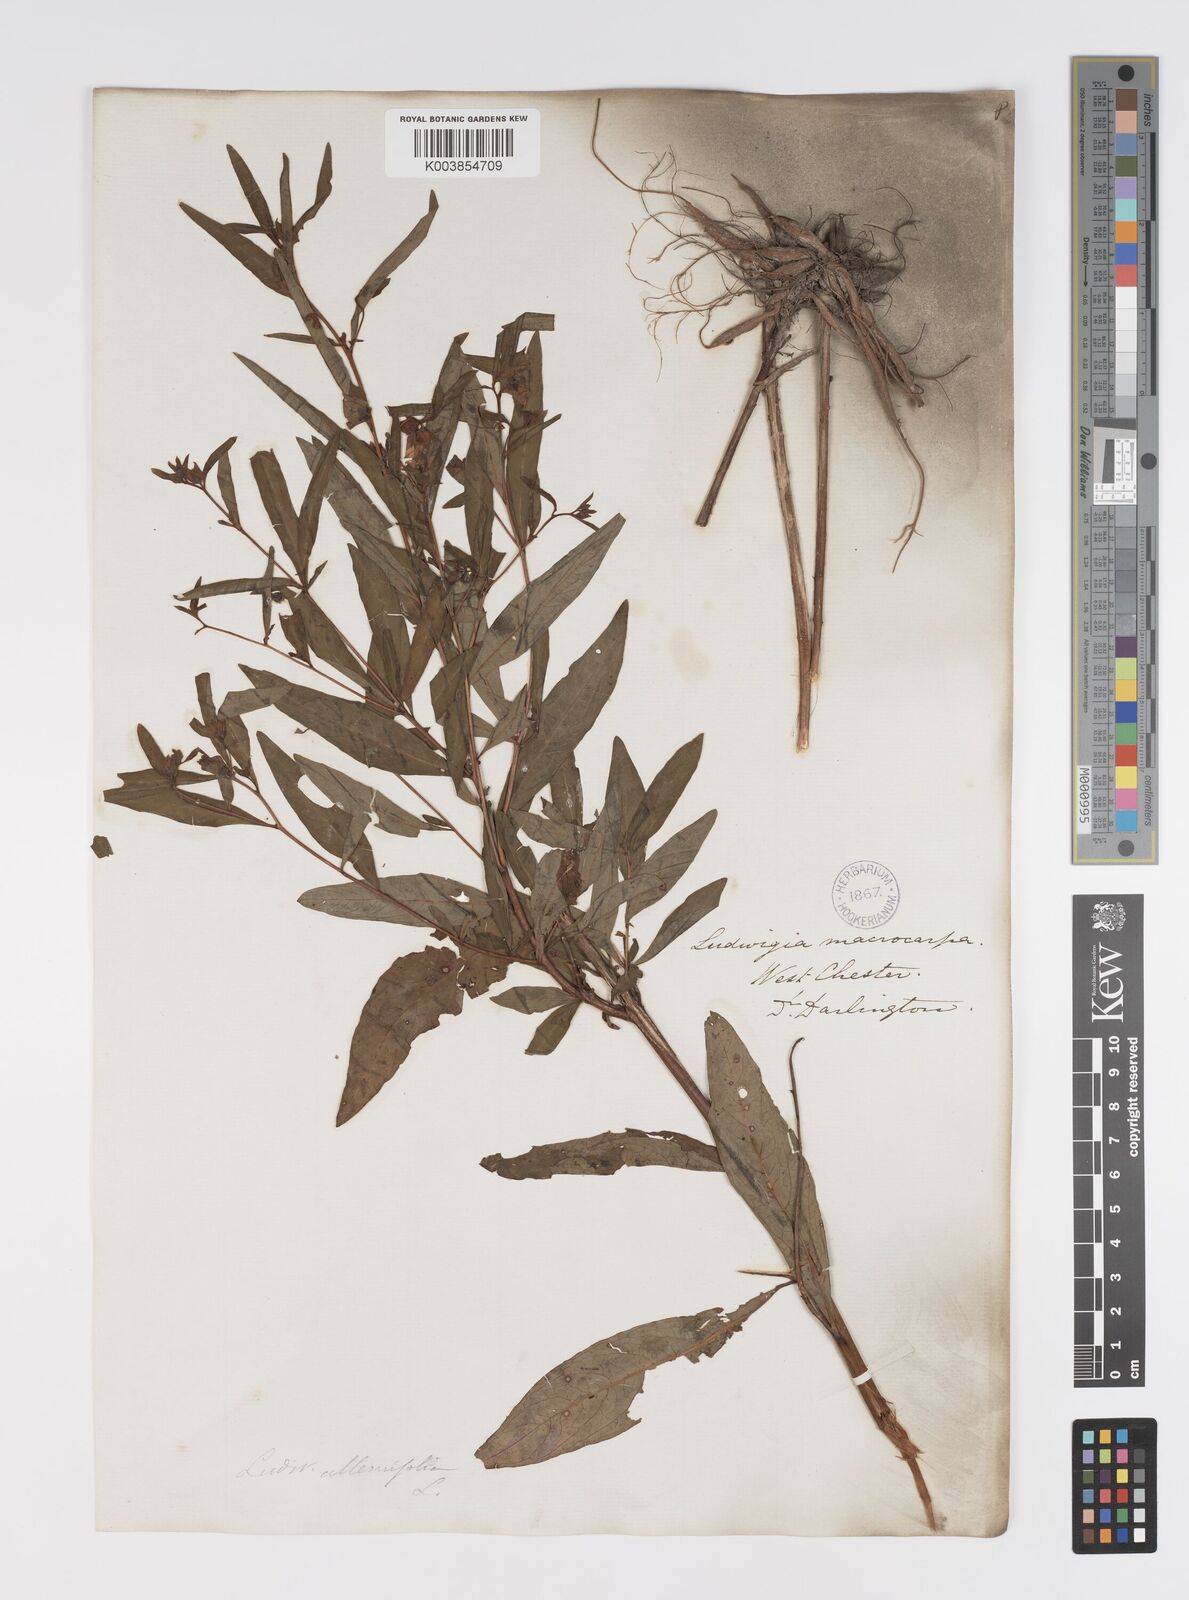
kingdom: Plantae
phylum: Tracheophyta
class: Magnoliopsida
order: Myrtales
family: Onagraceae
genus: Ludwigia
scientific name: Ludwigia alternifolia
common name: Rattlebox
